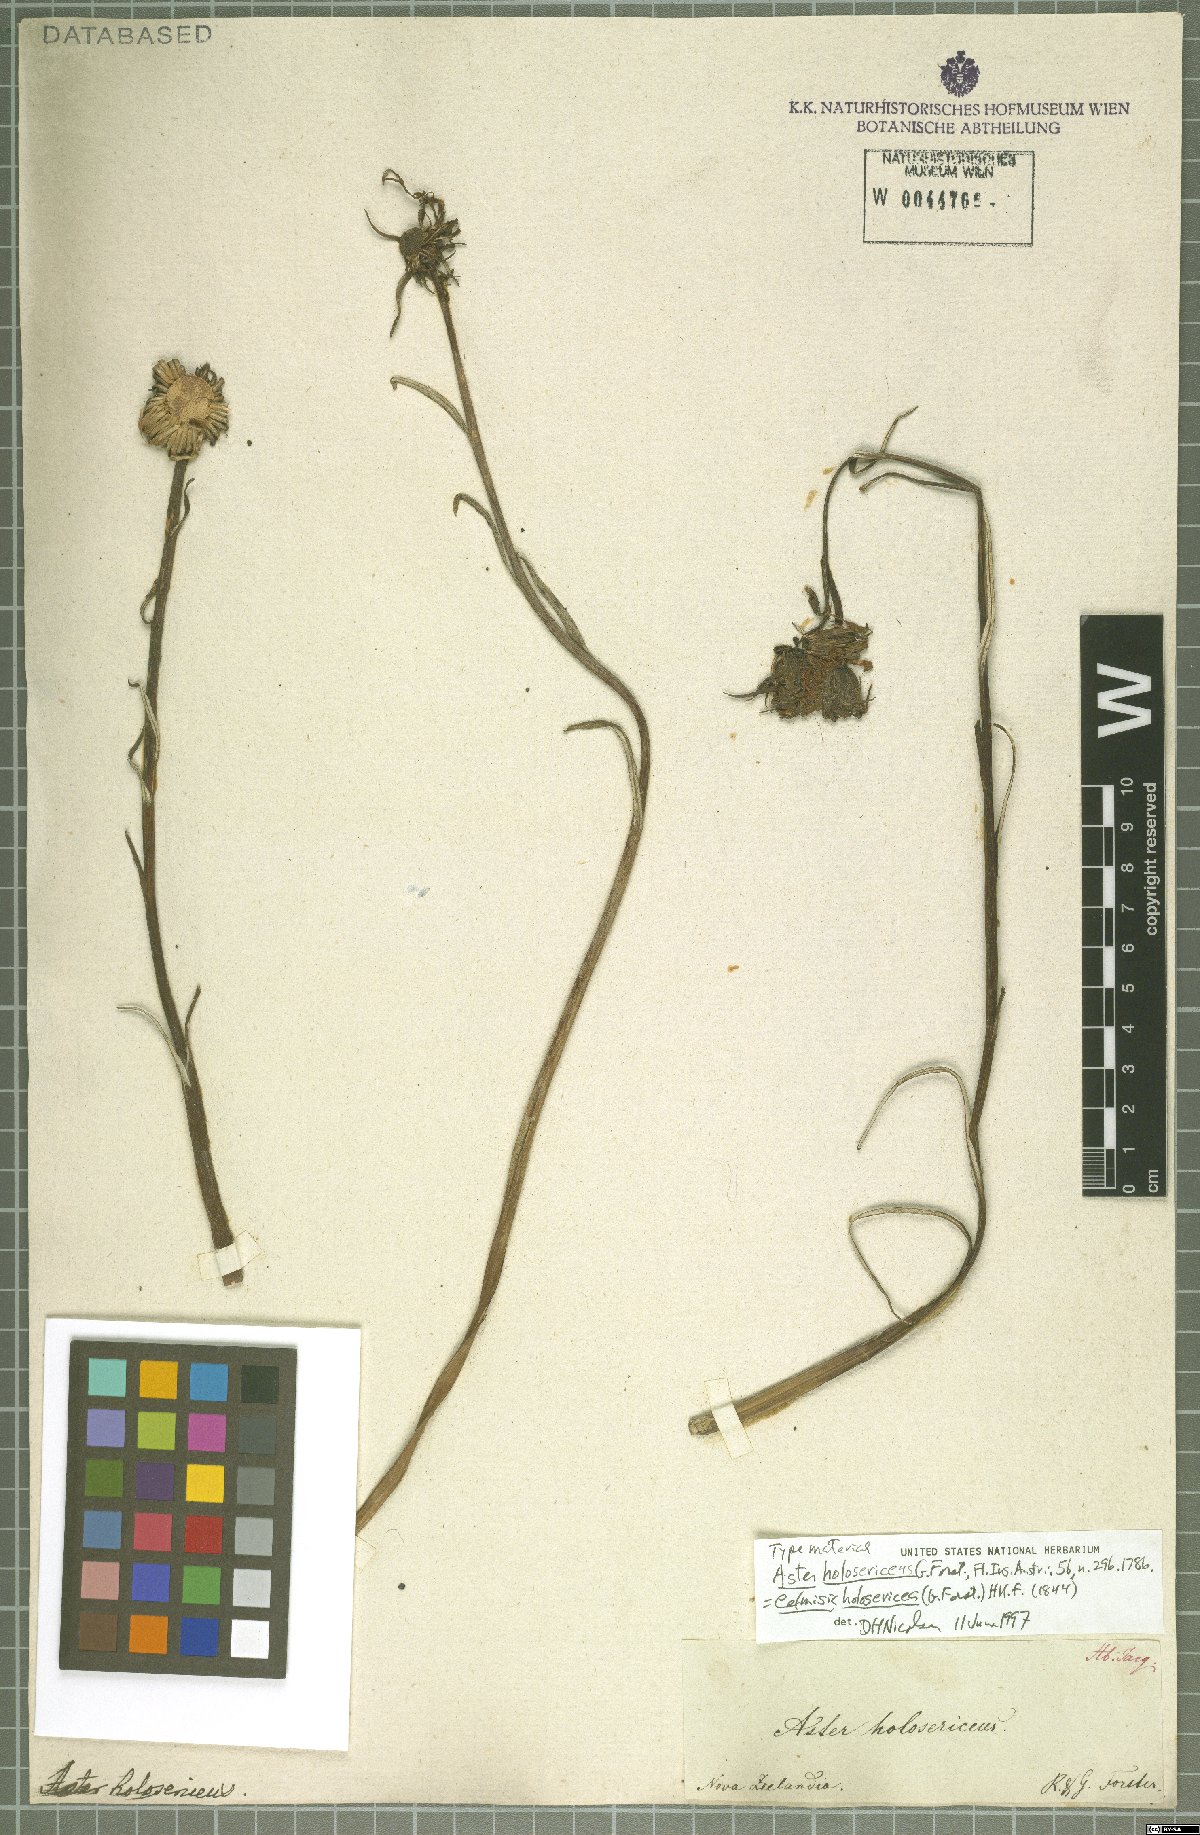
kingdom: Plantae
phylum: Tracheophyta
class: Magnoliopsida
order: Asterales
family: Asteraceae
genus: Celmisia
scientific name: Celmisia holosericea
